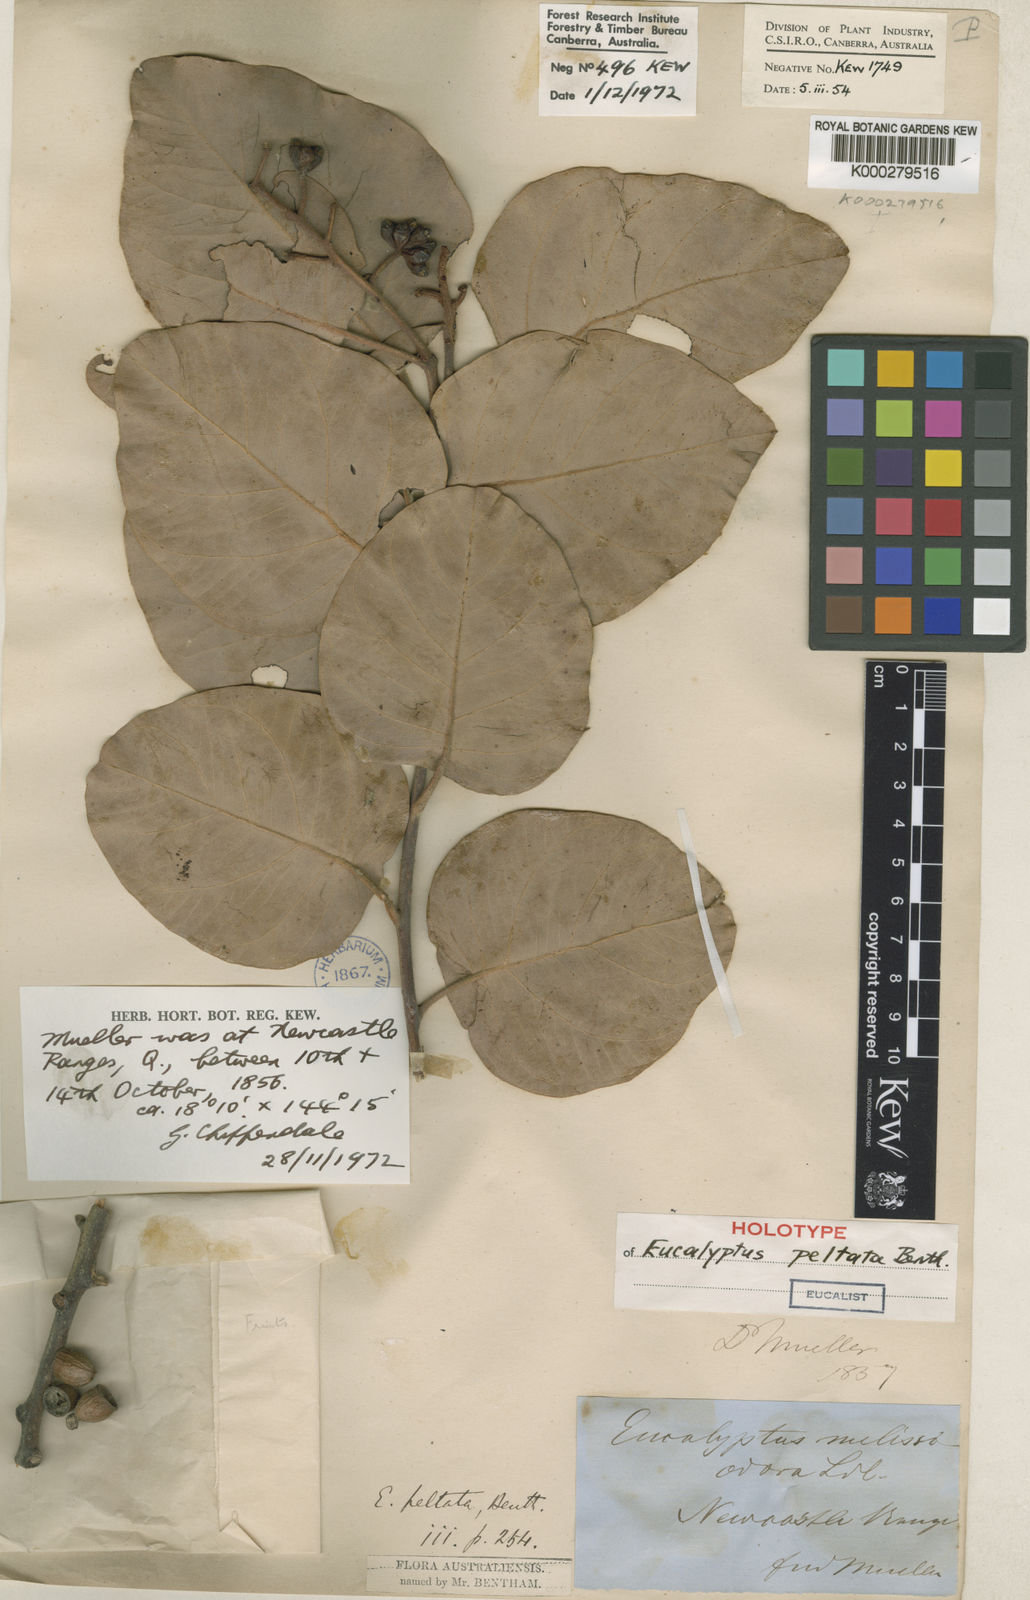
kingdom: Plantae
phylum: Tracheophyta
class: Magnoliopsida
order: Myrtales
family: Myrtaceae
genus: Corymbia
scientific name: Corymbia peltata
